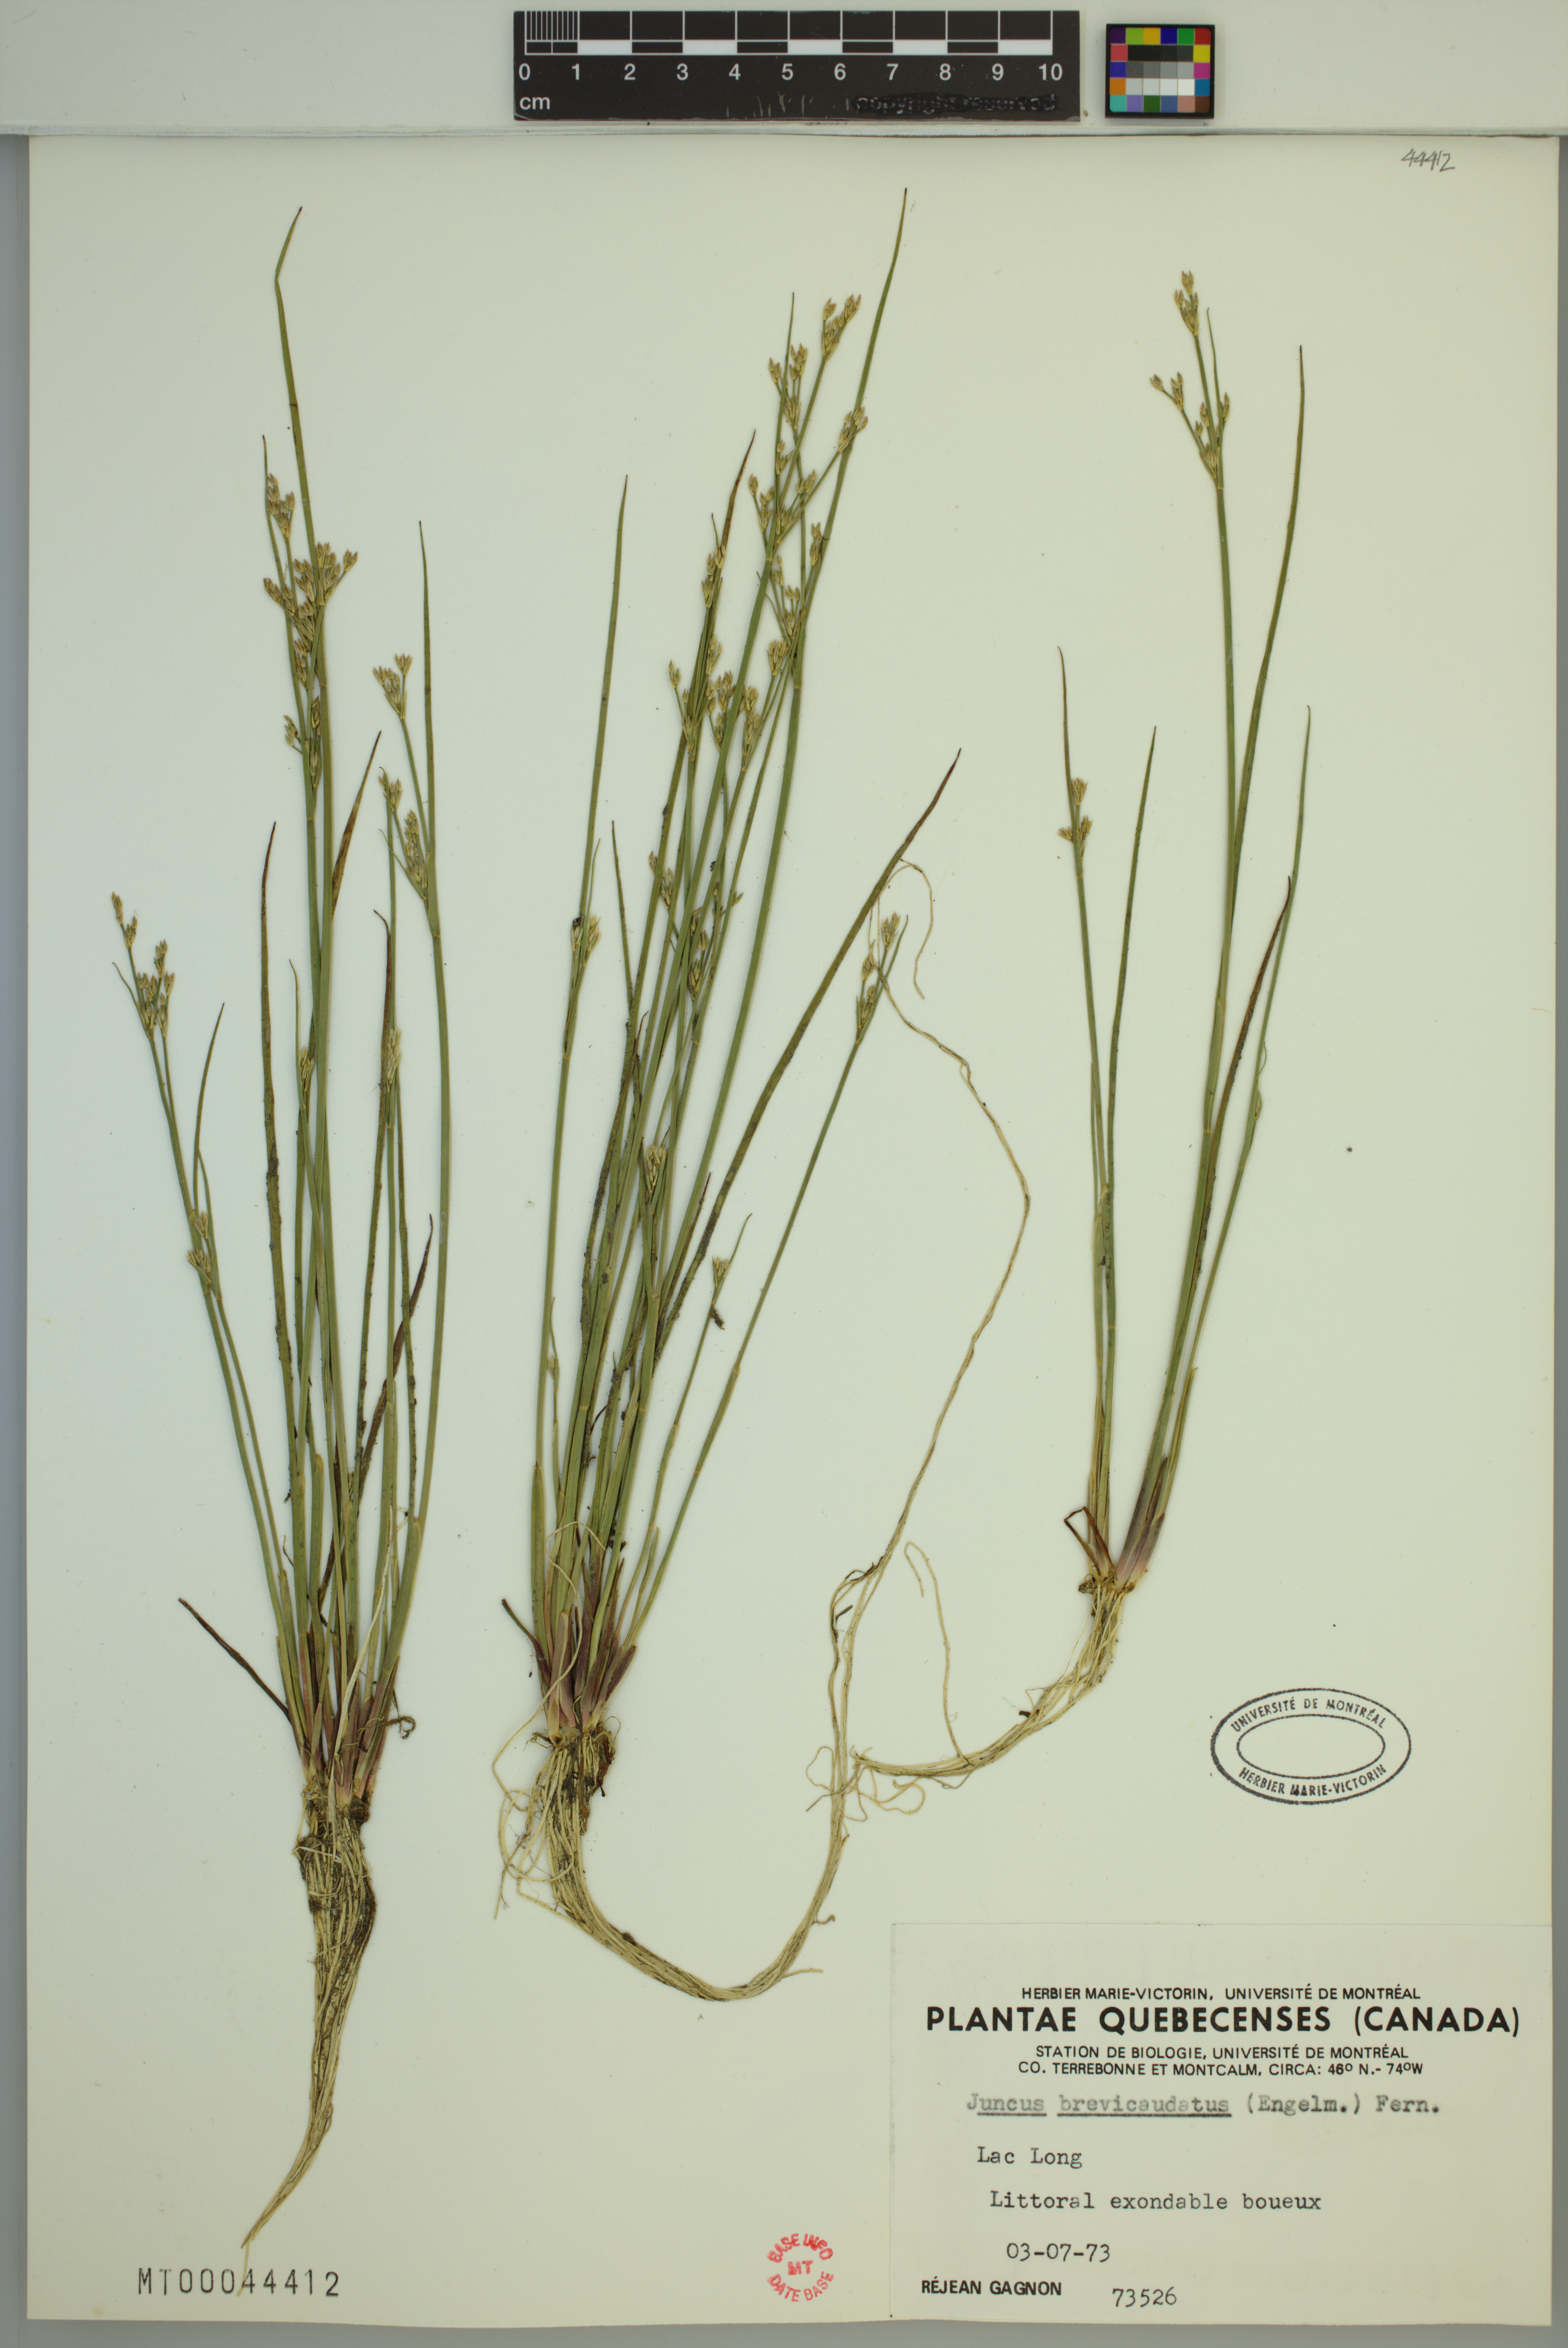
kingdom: Plantae
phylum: Tracheophyta
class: Liliopsida
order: Poales
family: Juncaceae
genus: Juncus
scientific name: Juncus brevicaudatus
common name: Narrow-panicle rush
